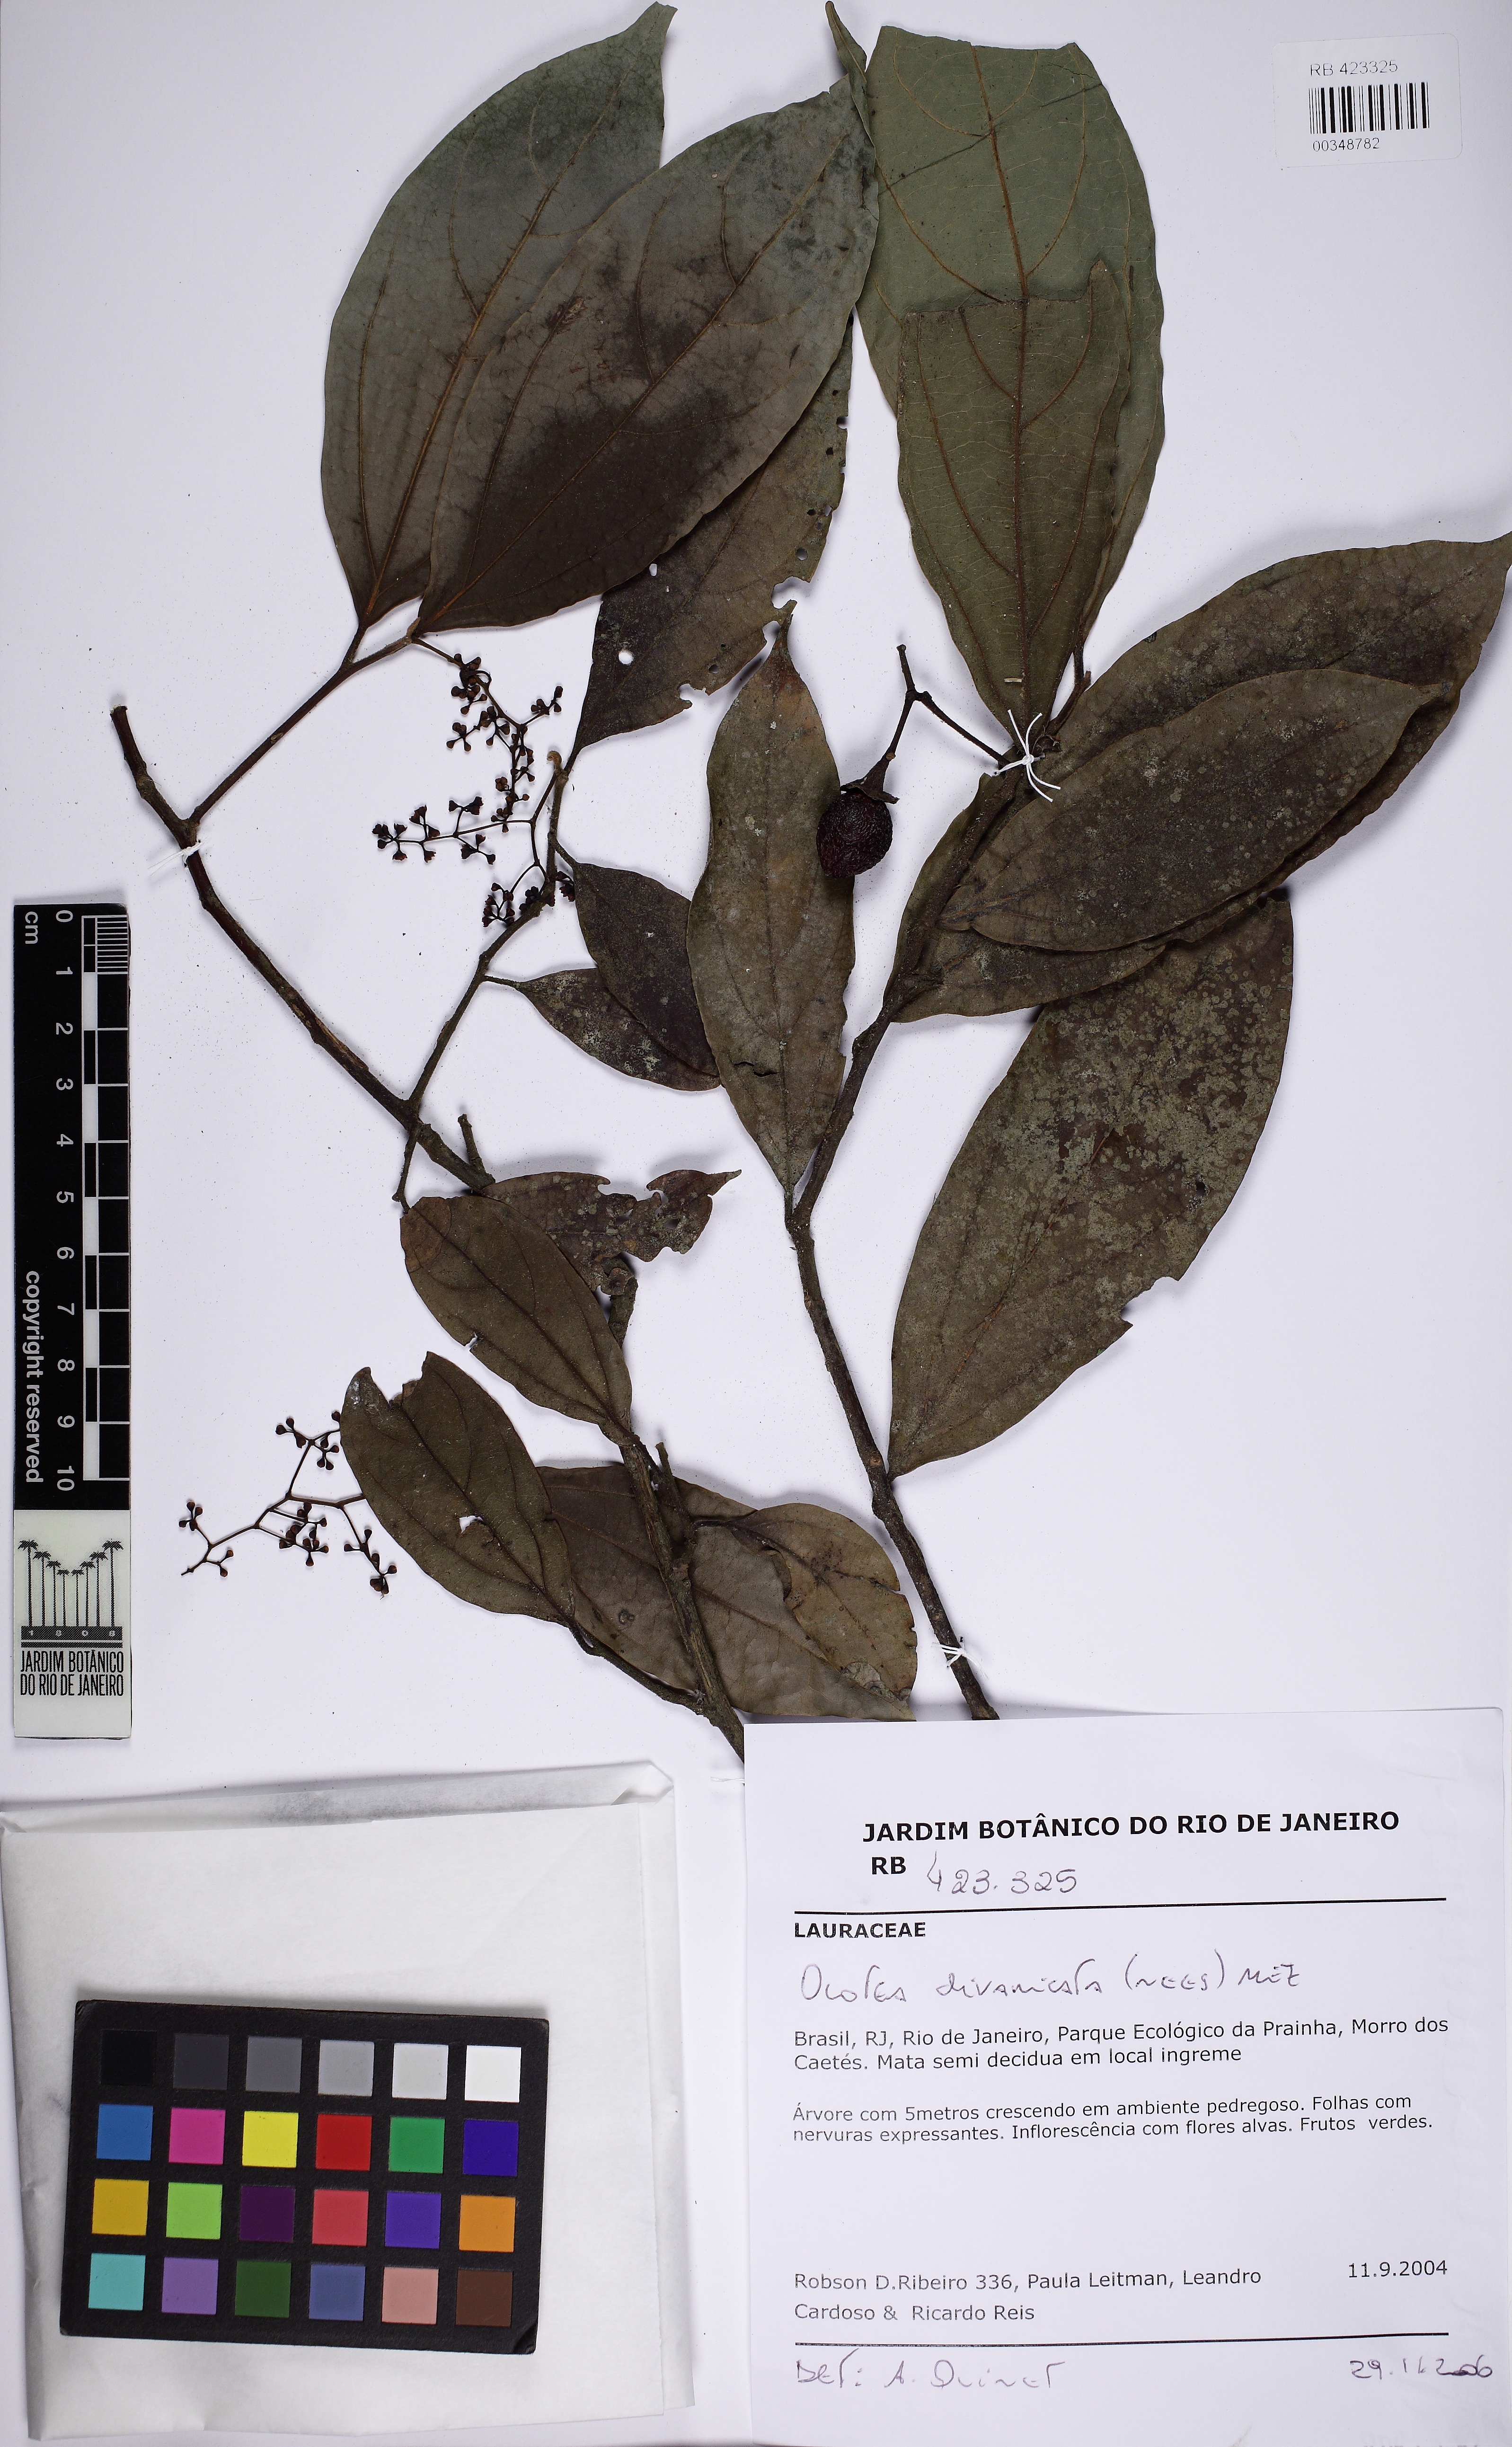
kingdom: Plantae
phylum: Tracheophyta
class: Magnoliopsida
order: Laurales
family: Lauraceae
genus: Ocotea
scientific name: Ocotea divaricata
